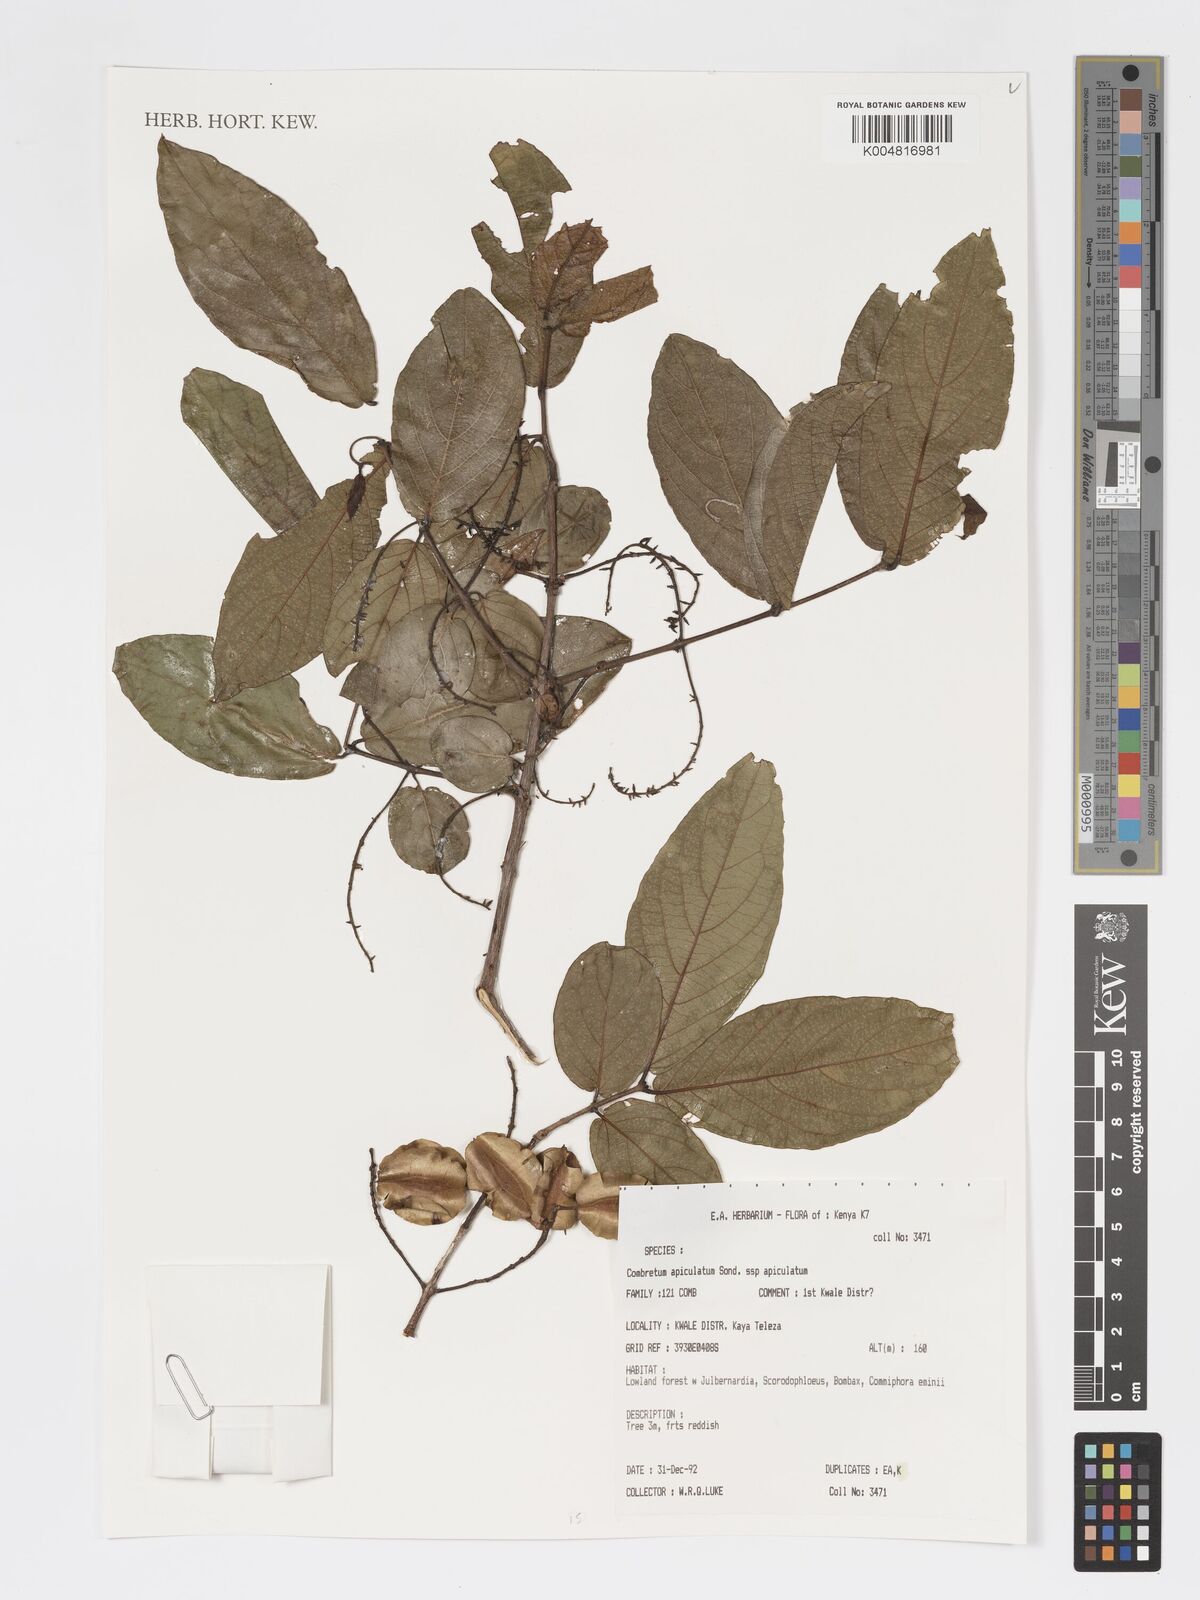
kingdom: Plantae
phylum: Tracheophyta
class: Magnoliopsida
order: Myrtales
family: Combretaceae
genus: Combretum
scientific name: Combretum apiculatum
